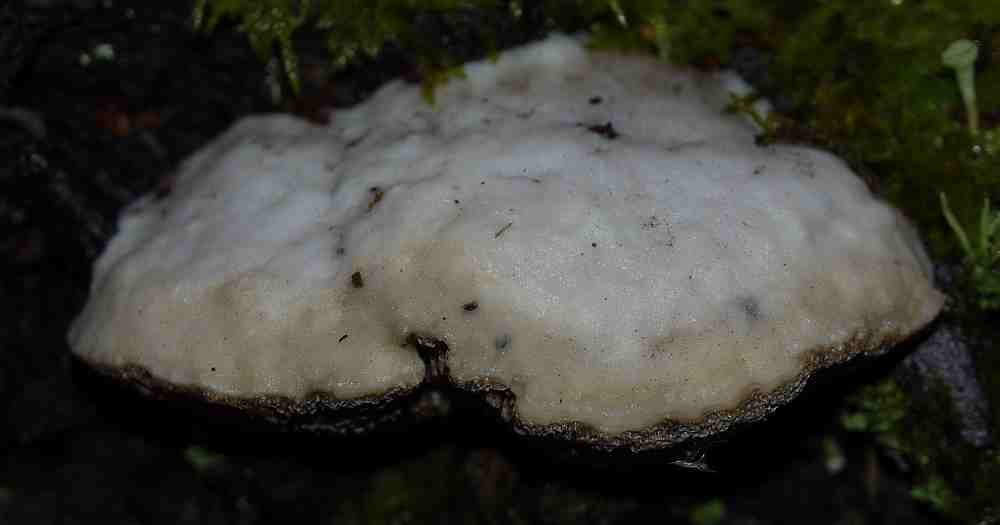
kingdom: Fungi
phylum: Basidiomycota
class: Agaricomycetes
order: Polyporales
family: Polyporaceae
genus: Trametes
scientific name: Trametes suaveolens
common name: vellugtende læderporesvamp
